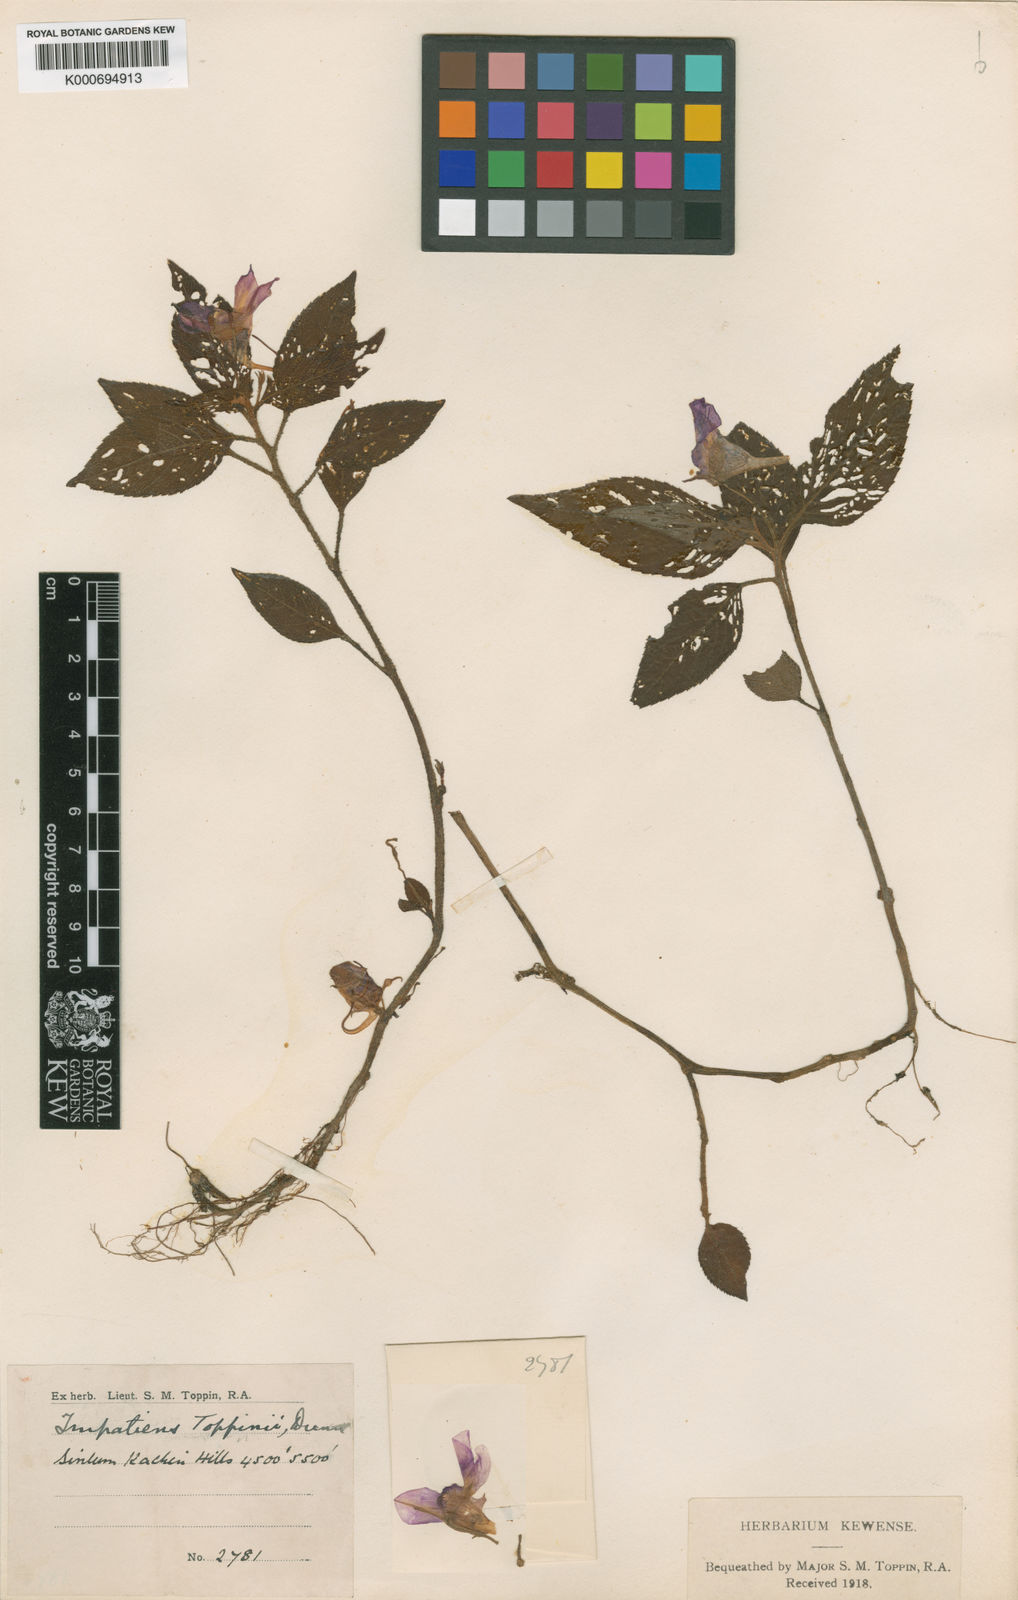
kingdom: Plantae
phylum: Tracheophyta
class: Magnoliopsida
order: Ericales
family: Balsaminaceae
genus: Impatiens
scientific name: Impatiens toppinii
